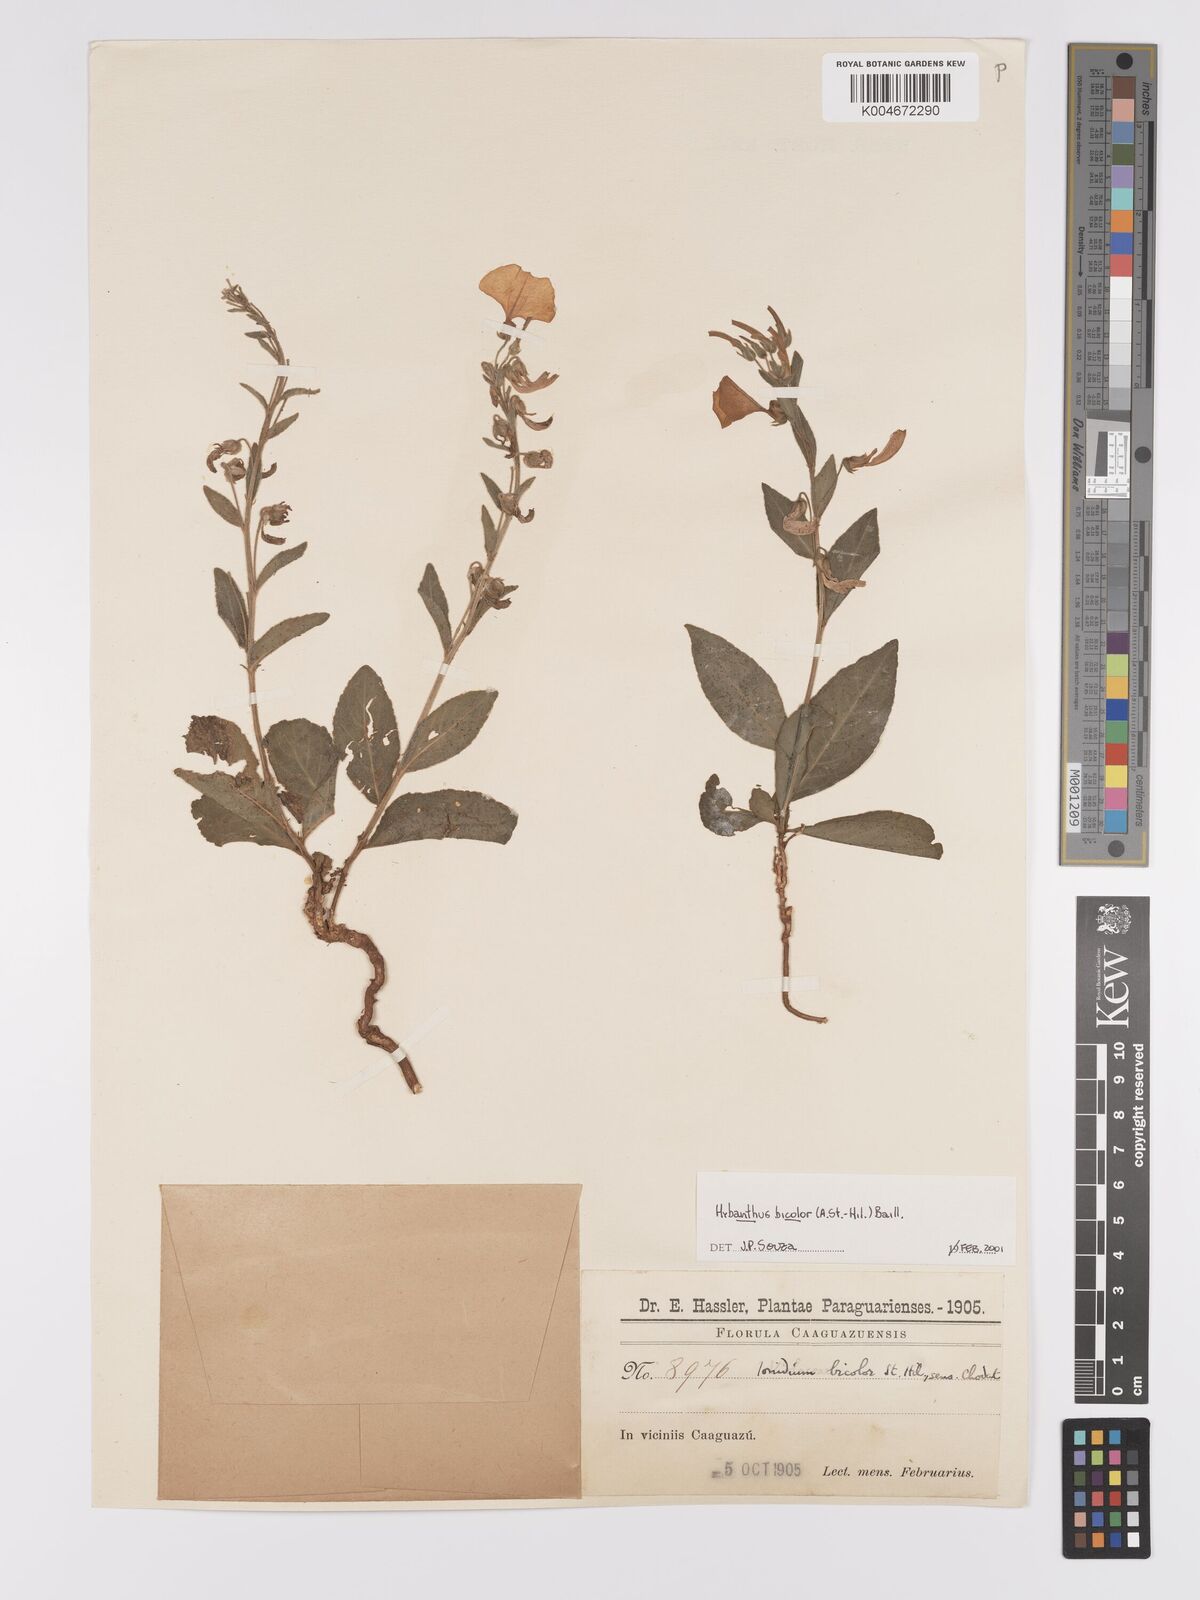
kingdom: Plantae
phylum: Tracheophyta
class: Magnoliopsida
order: Malpighiales
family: Violaceae
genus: Pombalia
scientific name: Pombalia bicolor
